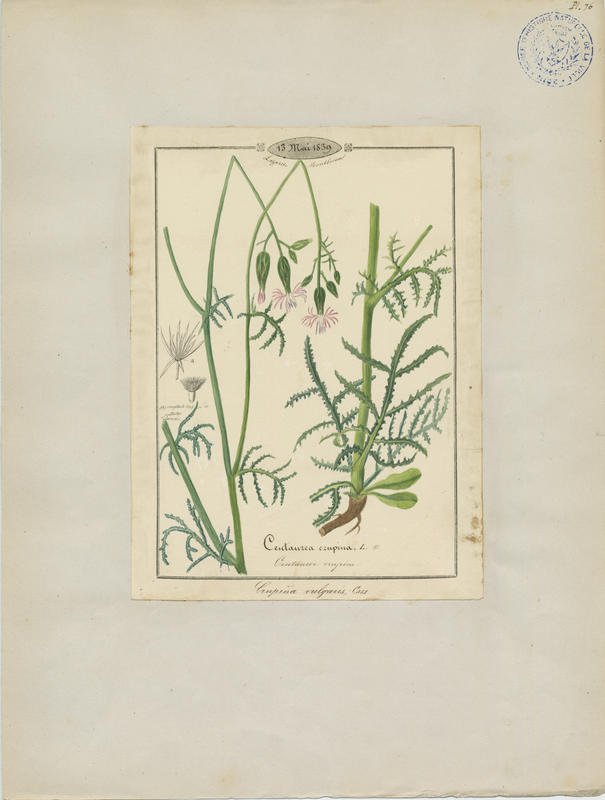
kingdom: Plantae
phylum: Tracheophyta
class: Magnoliopsida
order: Asterales
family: Asteraceae
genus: Crupina
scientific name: Crupina vulgaris
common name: Common crupina
